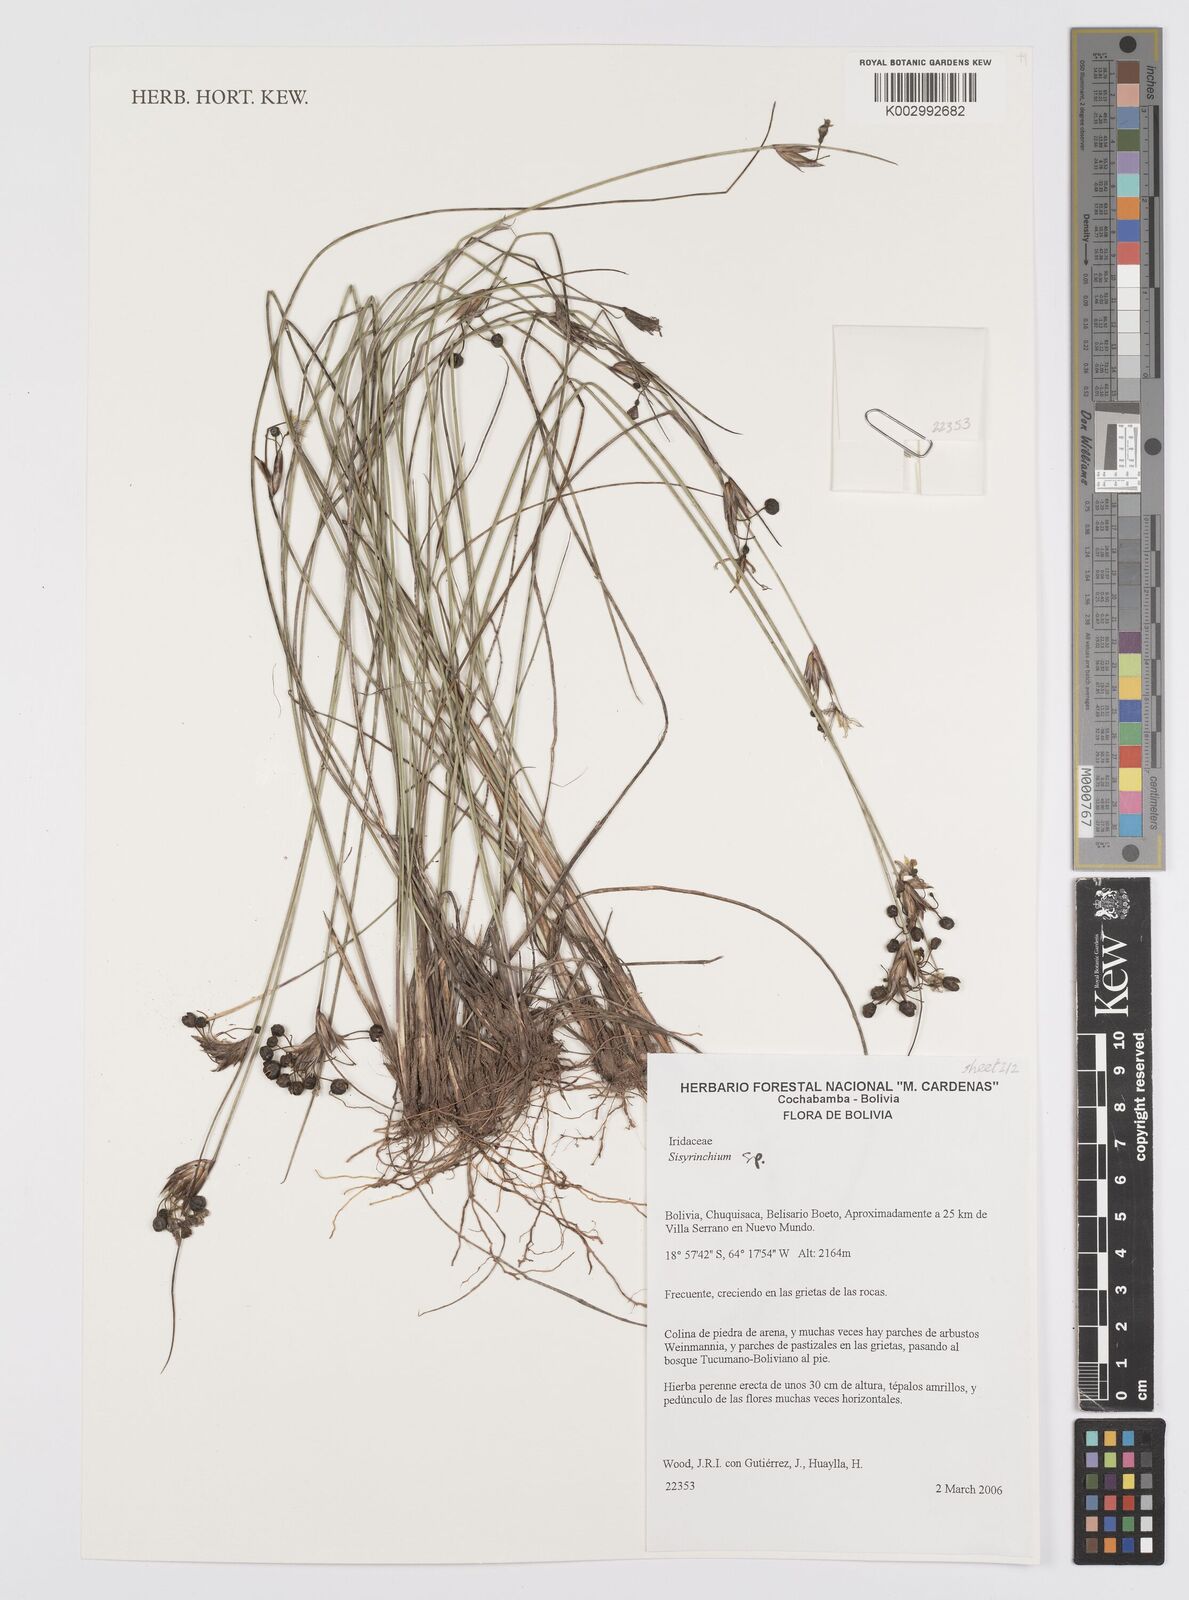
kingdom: Plantae
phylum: Tracheophyta
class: Liliopsida
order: Asparagales
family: Iridaceae
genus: Sisyrinchium
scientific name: Sisyrinchium
